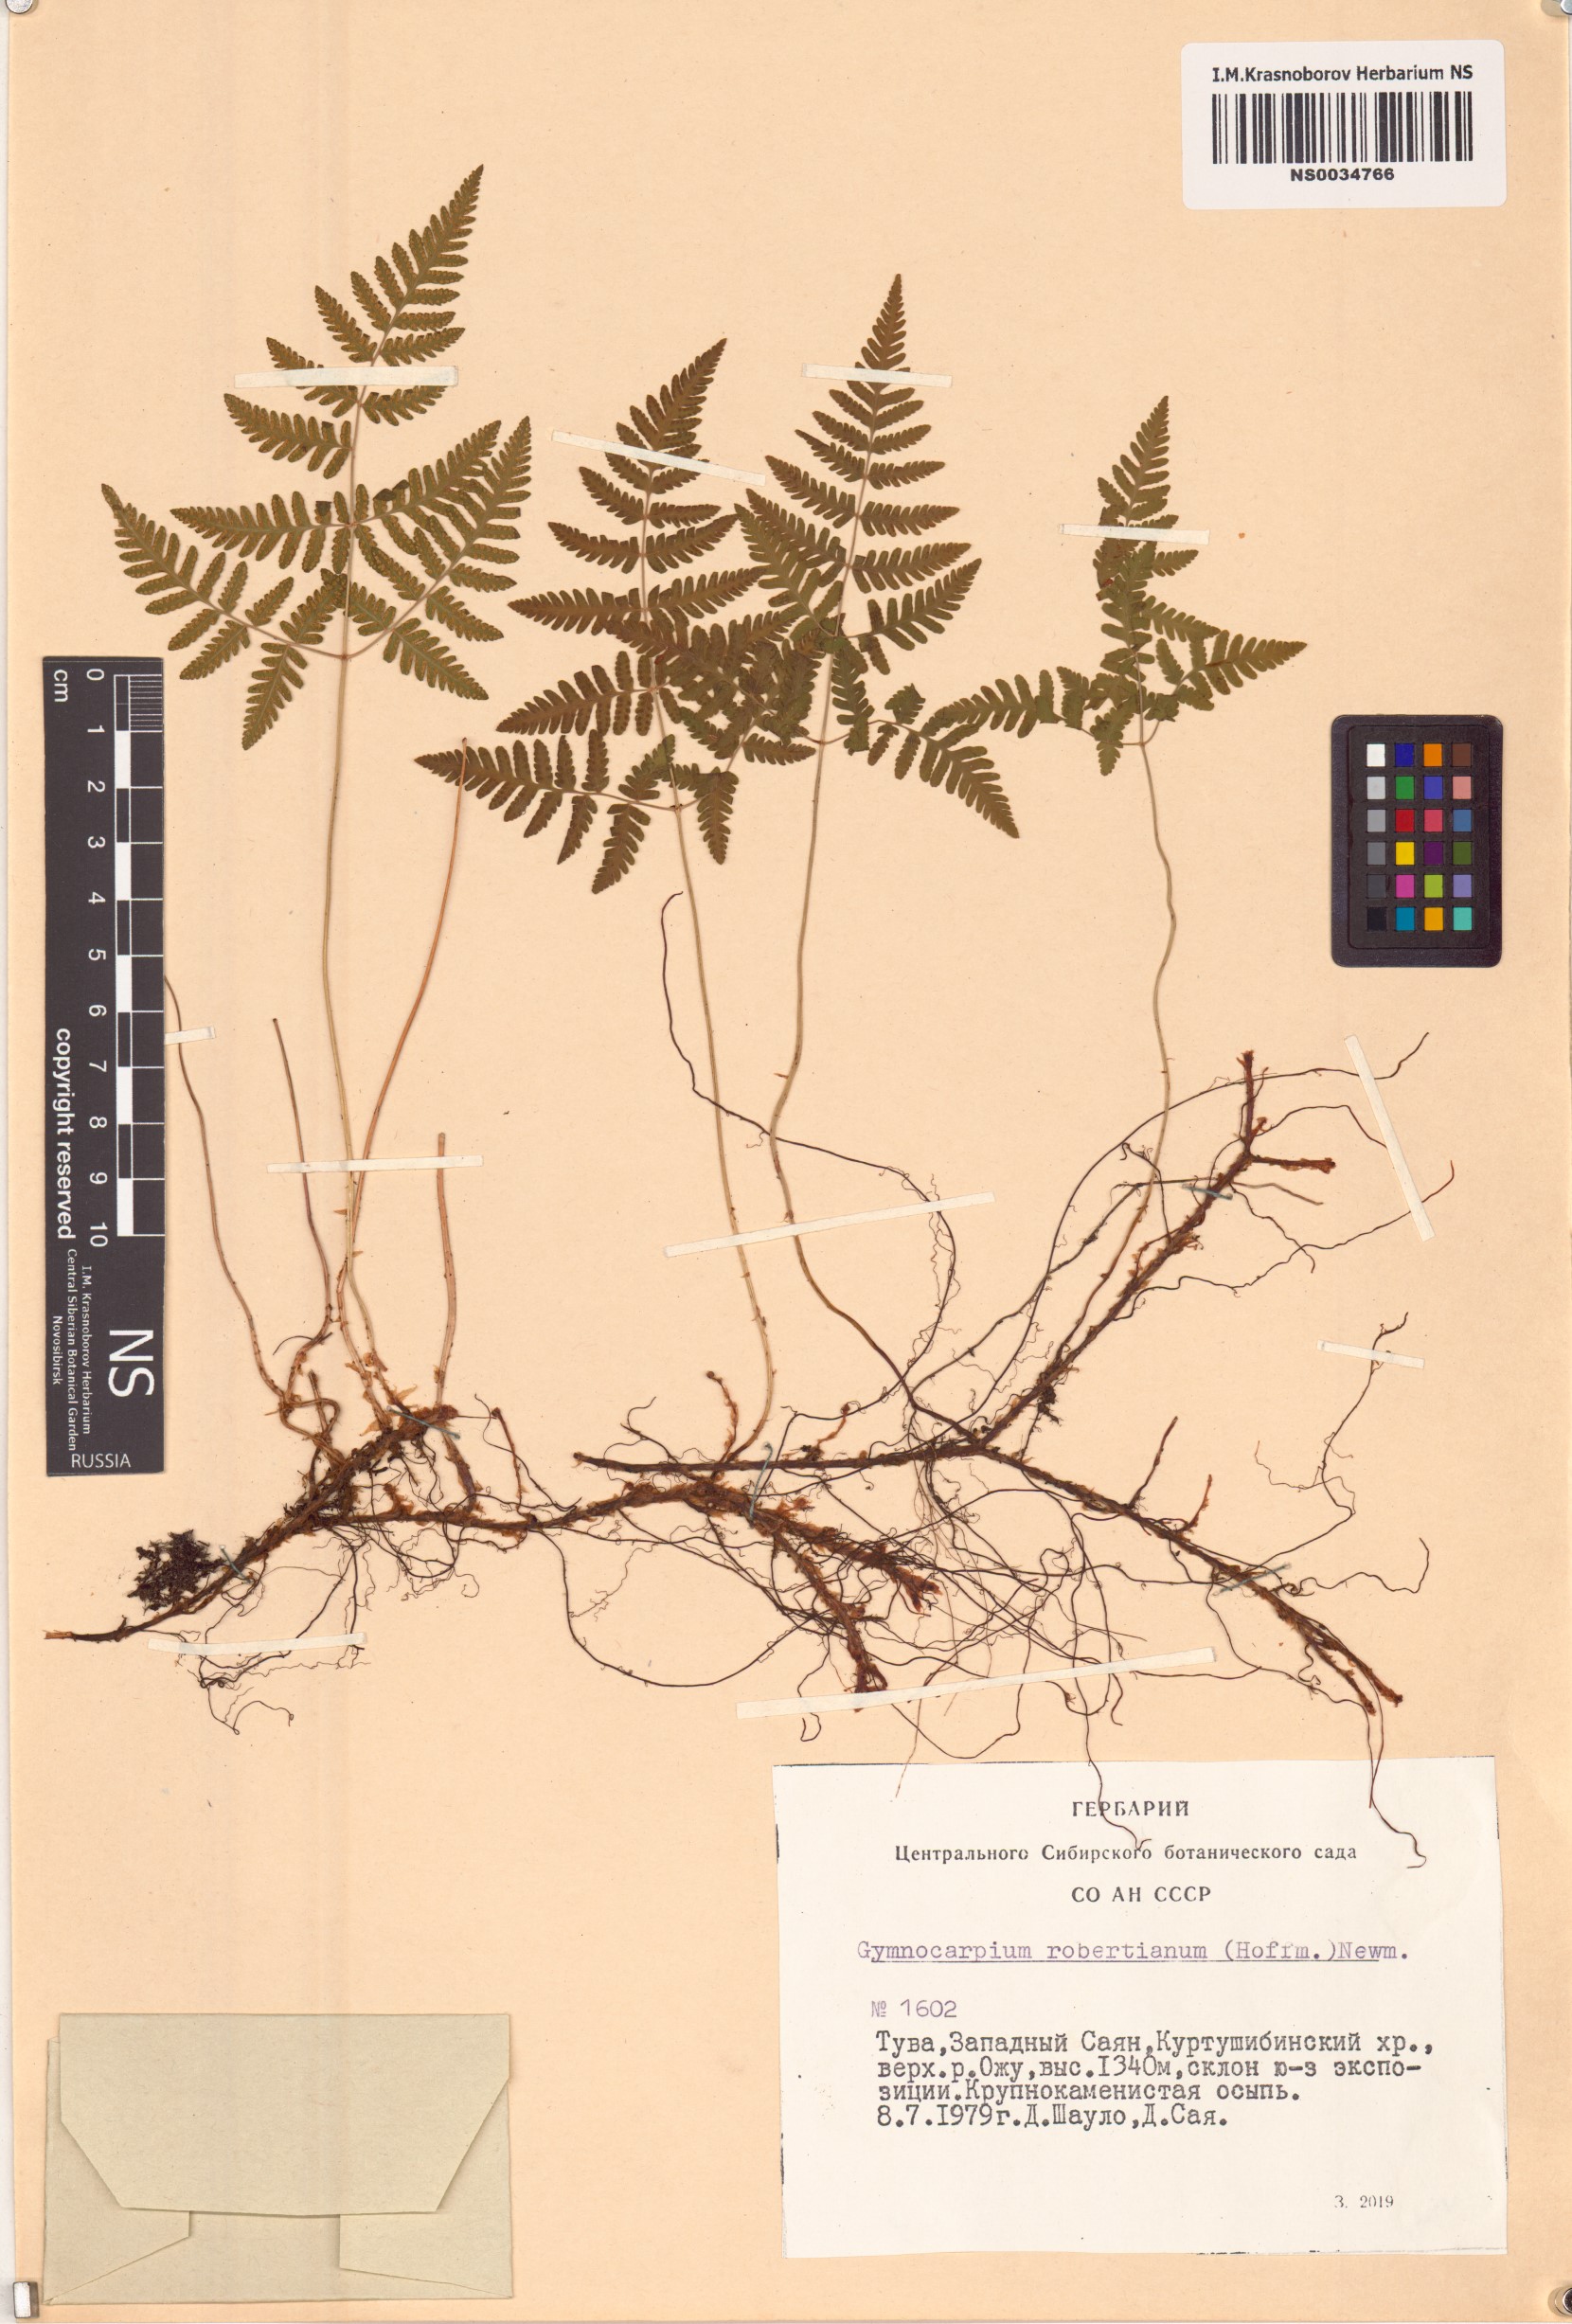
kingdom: Plantae
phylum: Tracheophyta
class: Polypodiopsida
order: Polypodiales
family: Cystopteridaceae
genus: Gymnocarpium
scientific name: Gymnocarpium robertianum
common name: Limestone fern
